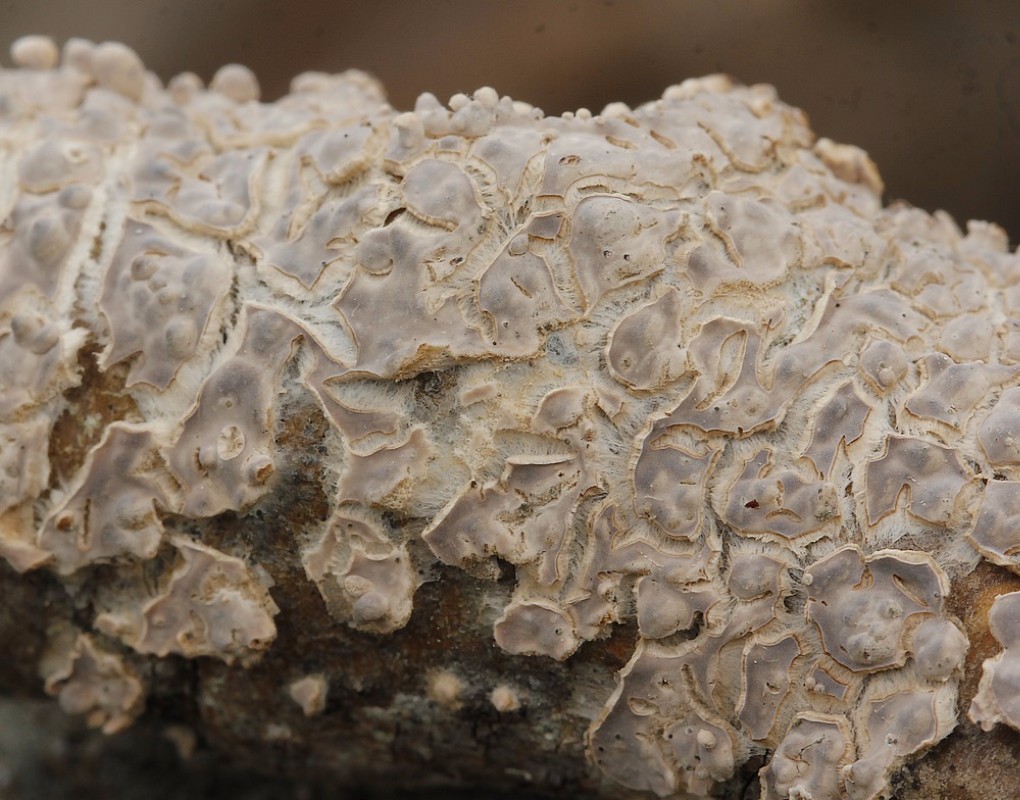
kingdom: Fungi
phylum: Basidiomycota
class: Agaricomycetes
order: Agaricales
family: Physalacriaceae
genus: Cylindrobasidium
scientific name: Cylindrobasidium evolvens
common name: sprækkehinde
